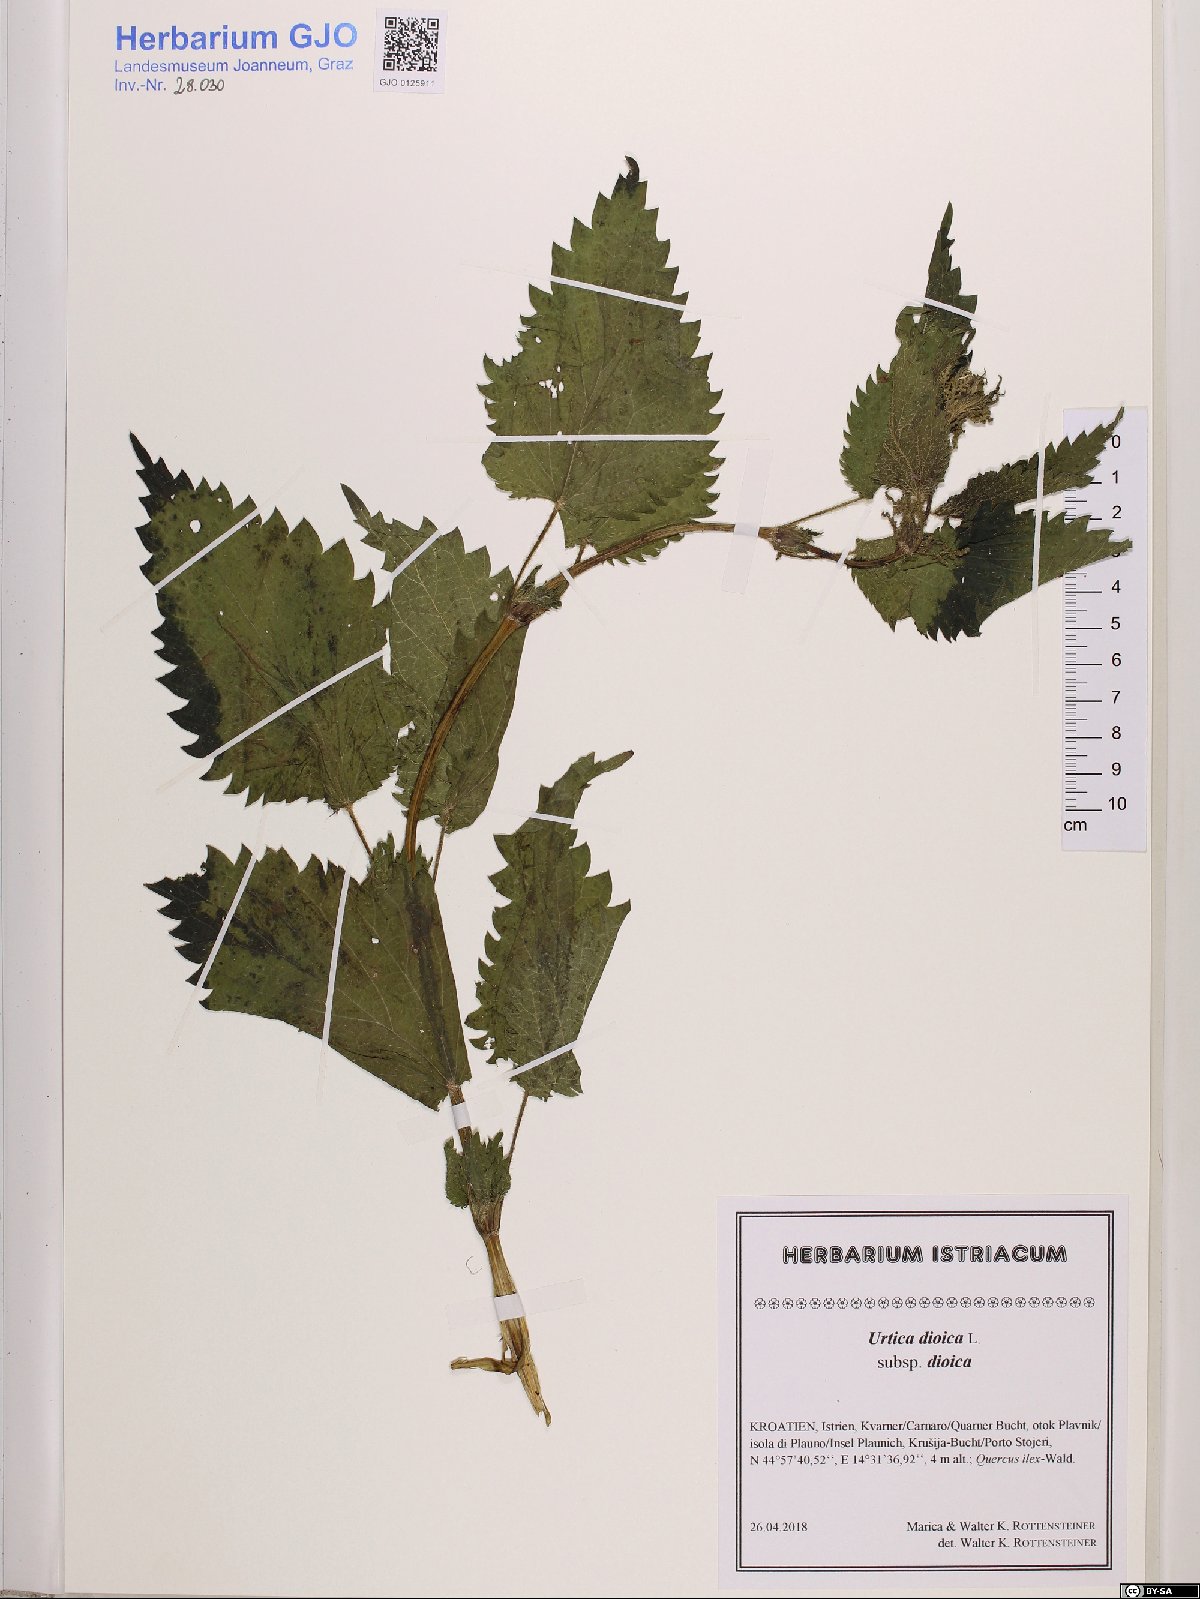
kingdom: Plantae
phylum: Tracheophyta
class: Magnoliopsida
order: Rosales
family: Urticaceae
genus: Urtica
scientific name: Urtica dioica
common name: Common nettle
